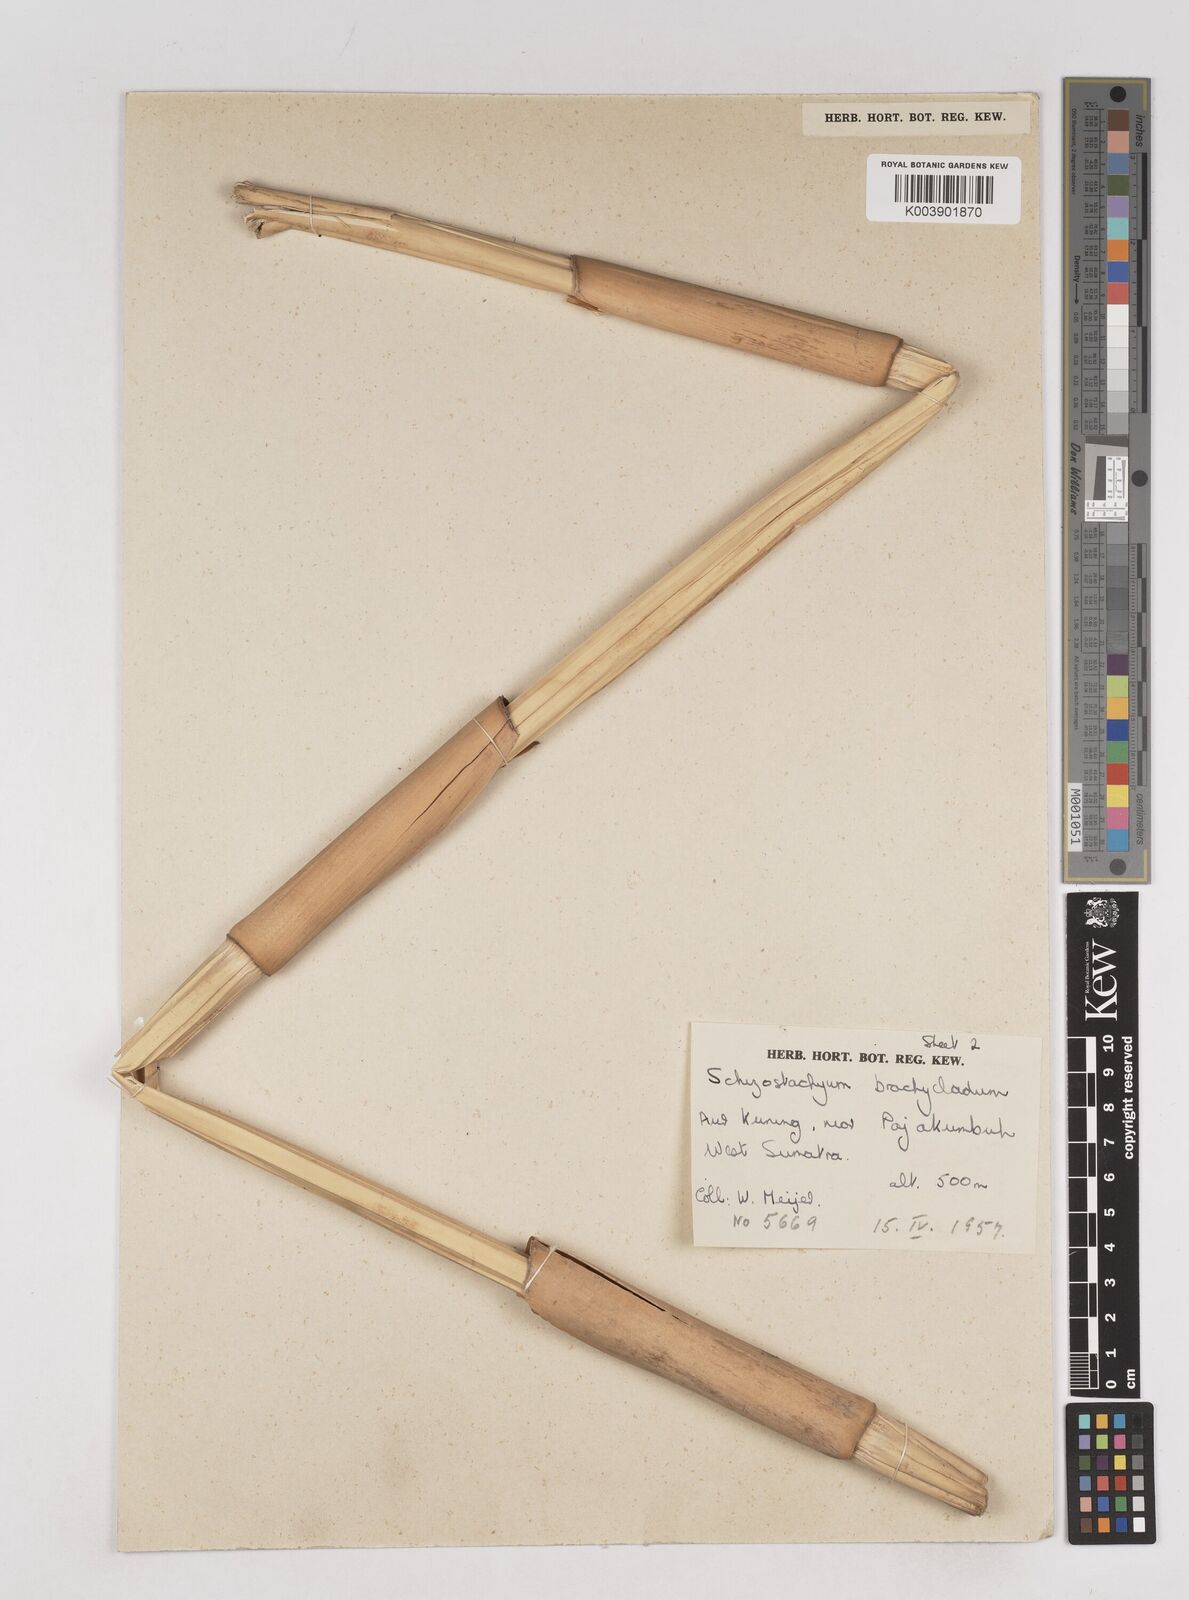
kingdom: Plantae
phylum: Tracheophyta
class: Liliopsida
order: Poales
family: Poaceae
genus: Schizostachyum
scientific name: Schizostachyum brachycladum
